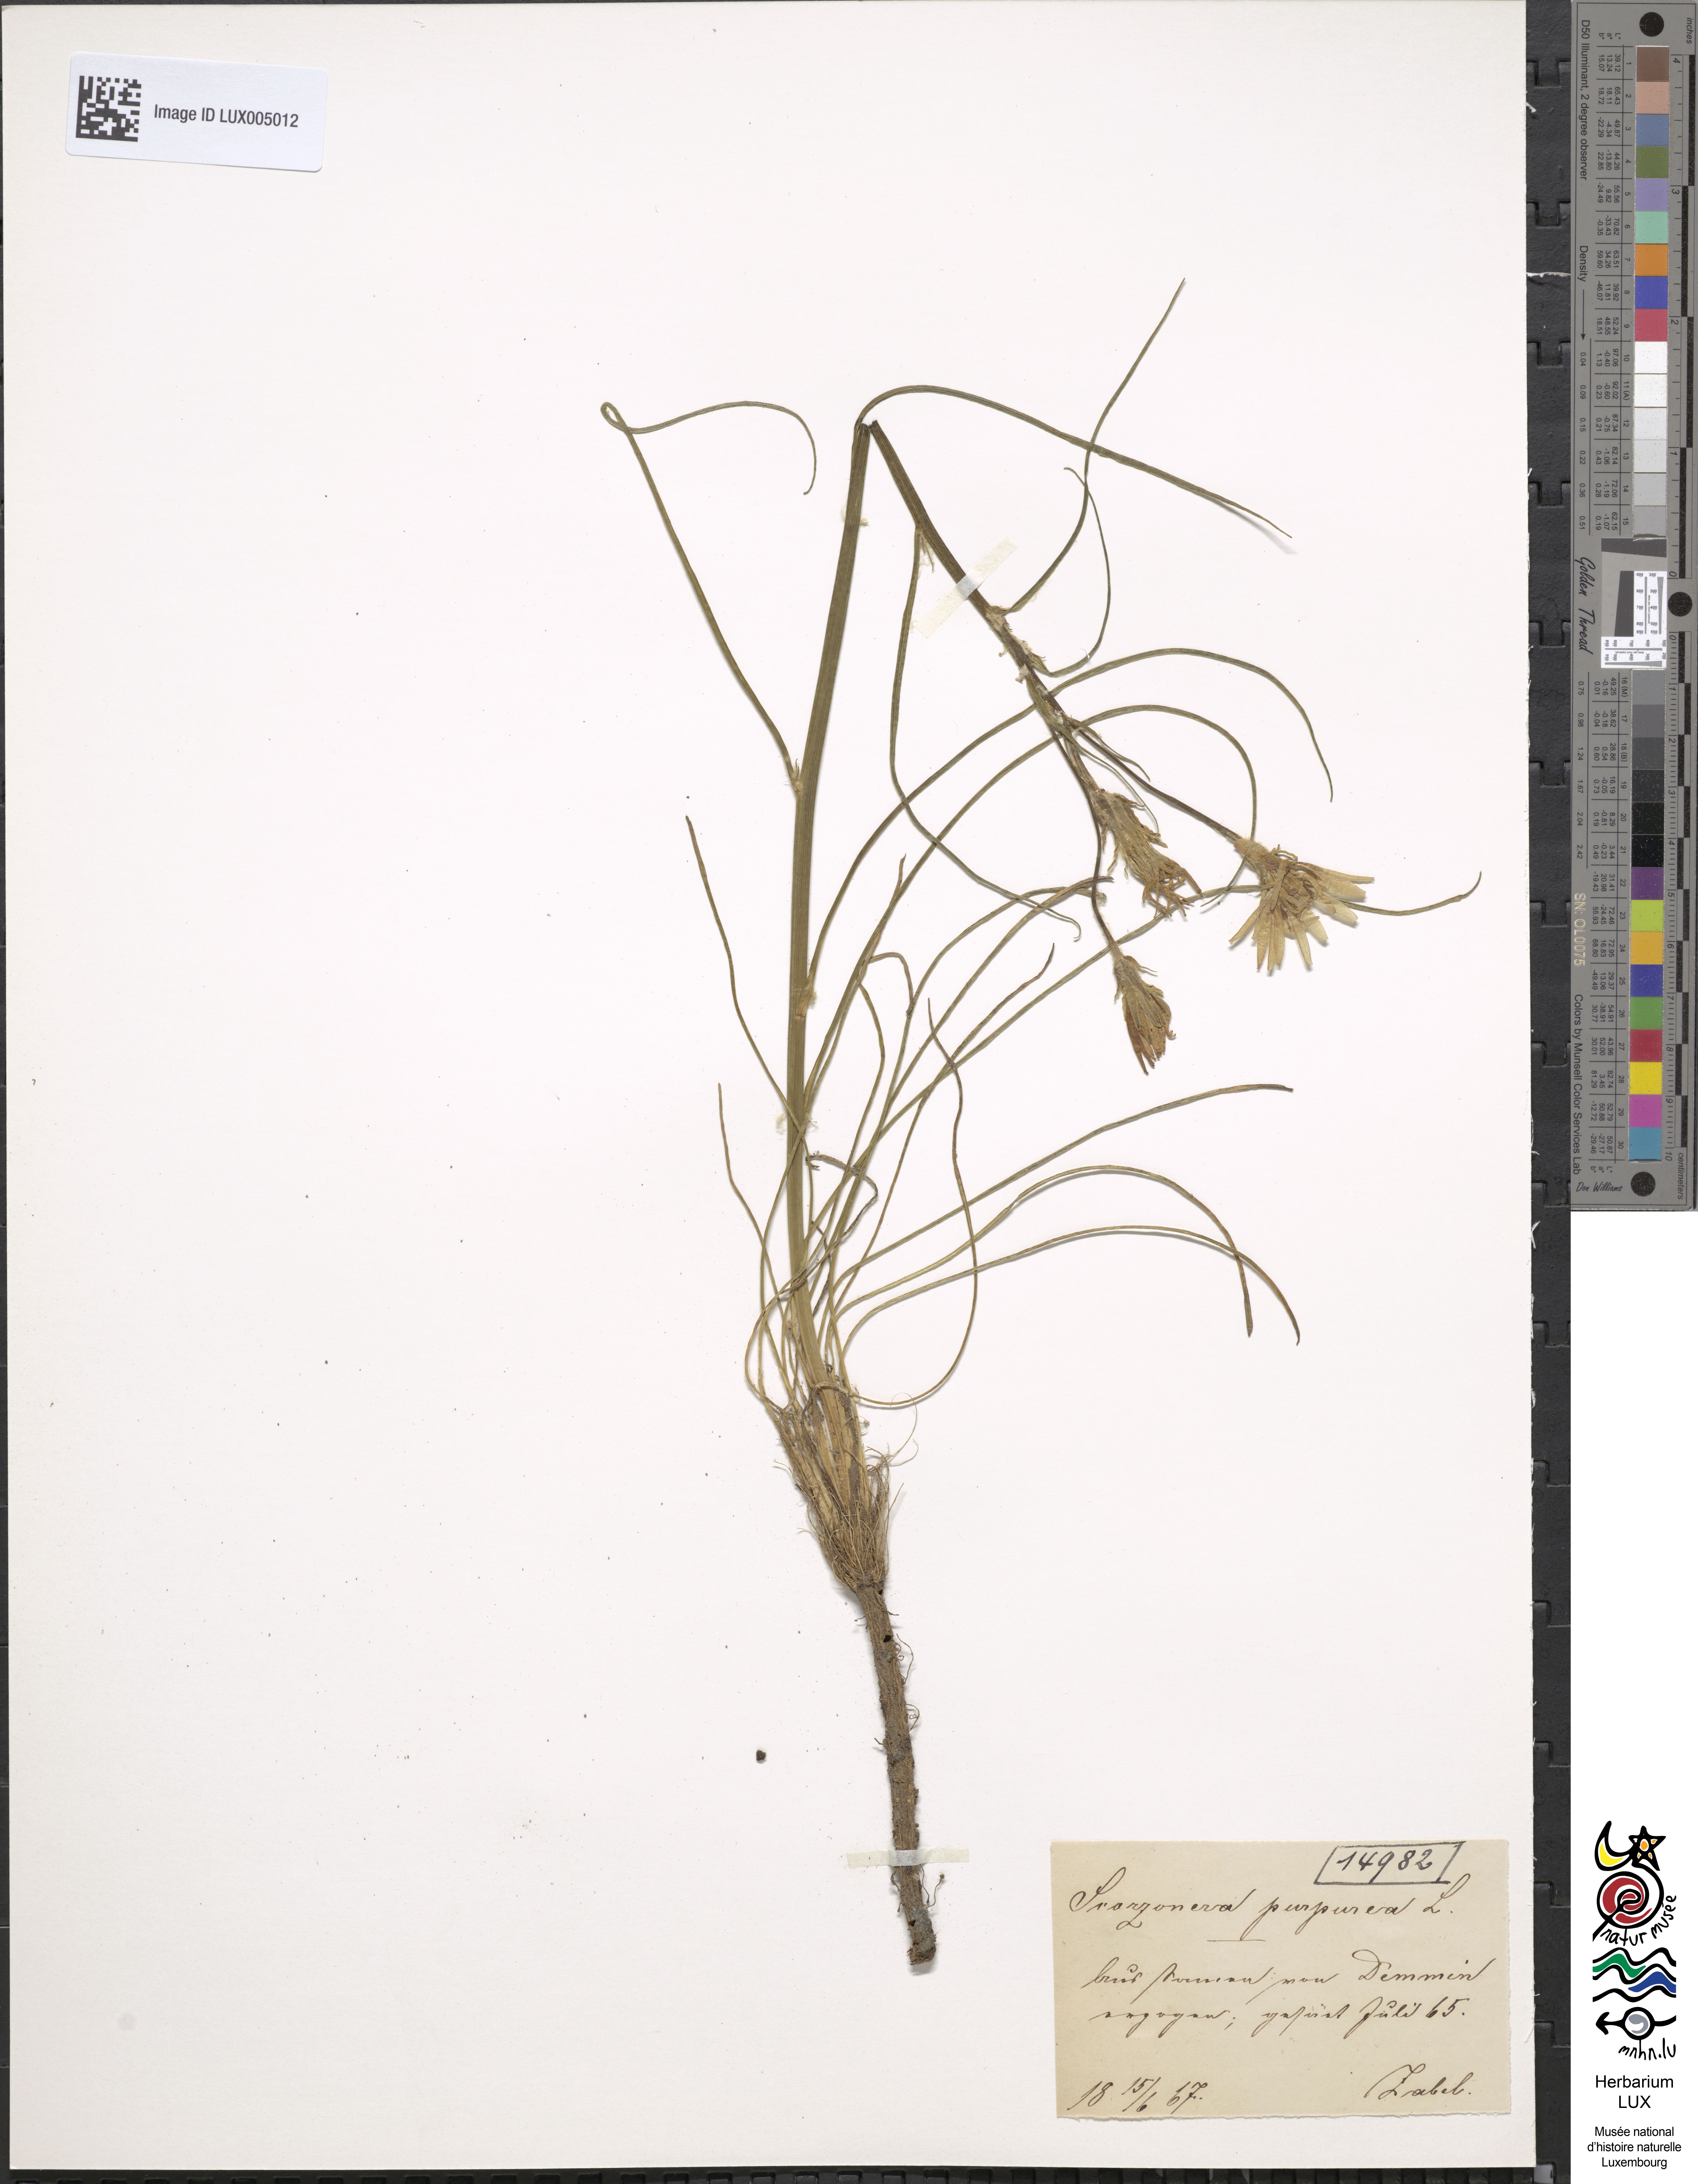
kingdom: Plantae
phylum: Tracheophyta
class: Magnoliopsida
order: Asterales
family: Asteraceae
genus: Scorzonera
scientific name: Scorzonera purpurea
